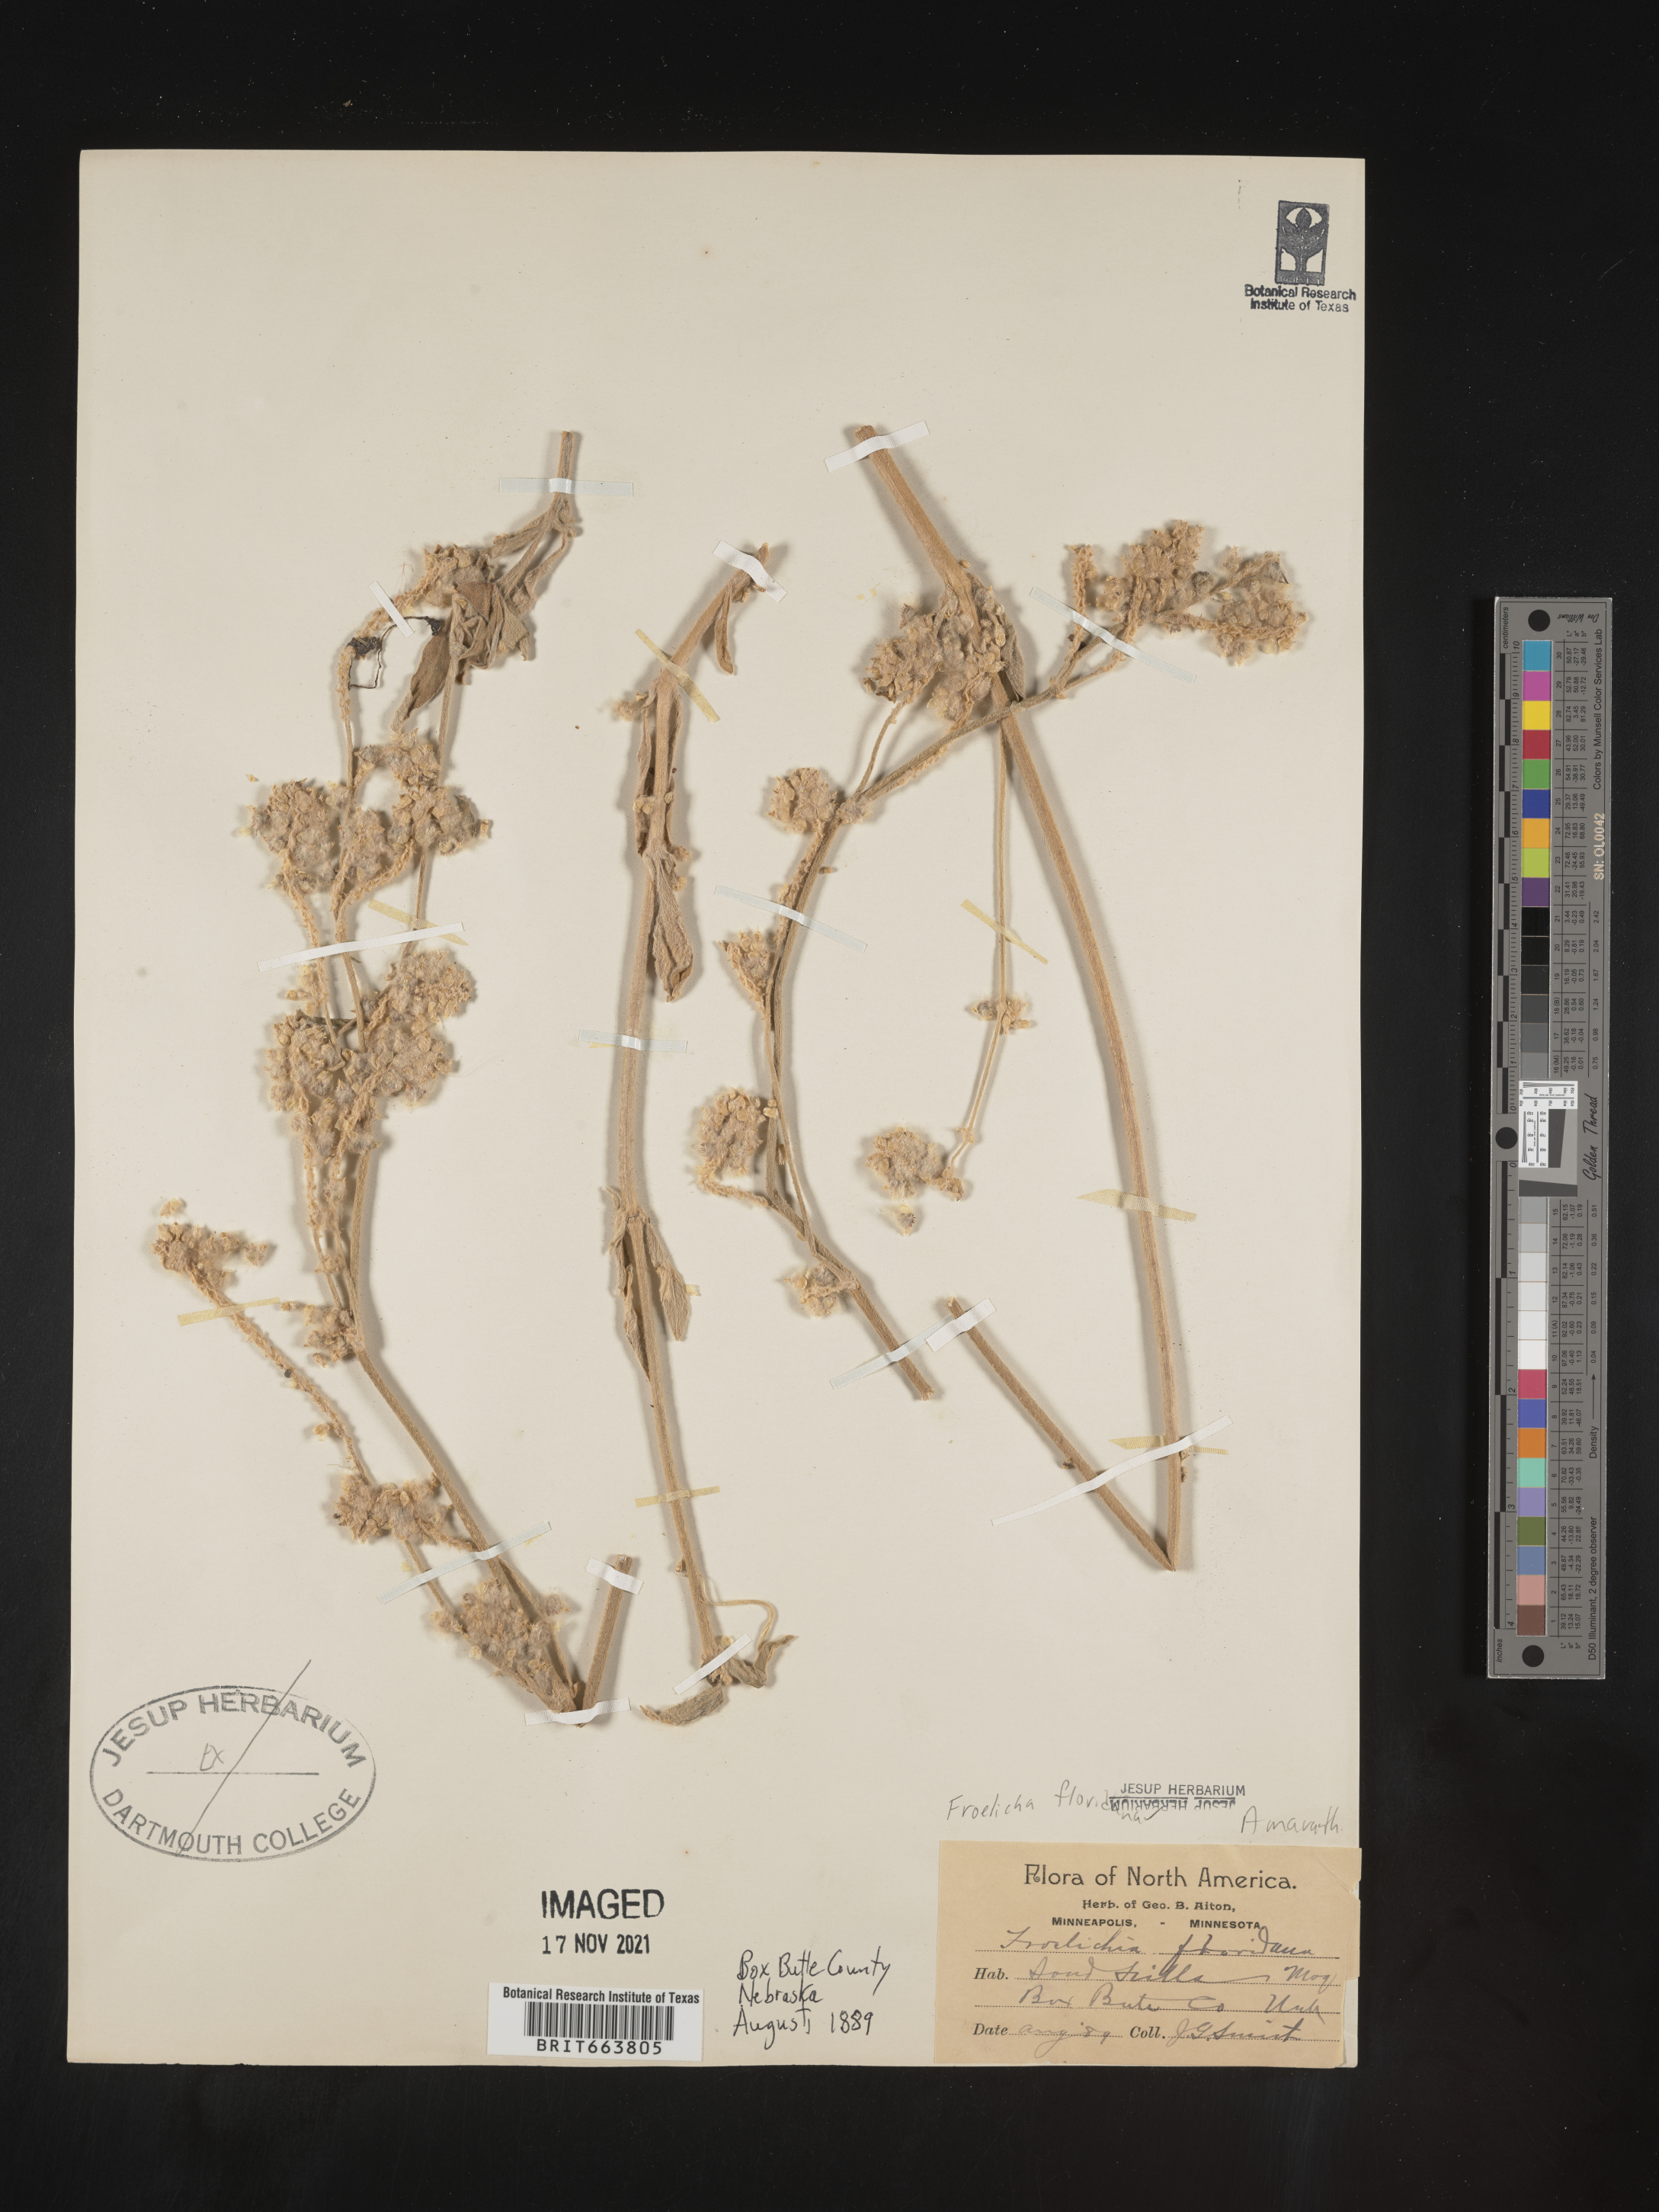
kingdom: Plantae
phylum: Tracheophyta
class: Magnoliopsida
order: Caryophyllales
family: Amaranthaceae
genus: Froelichia
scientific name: Froelichia floridana
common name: Florida snake-cotton
